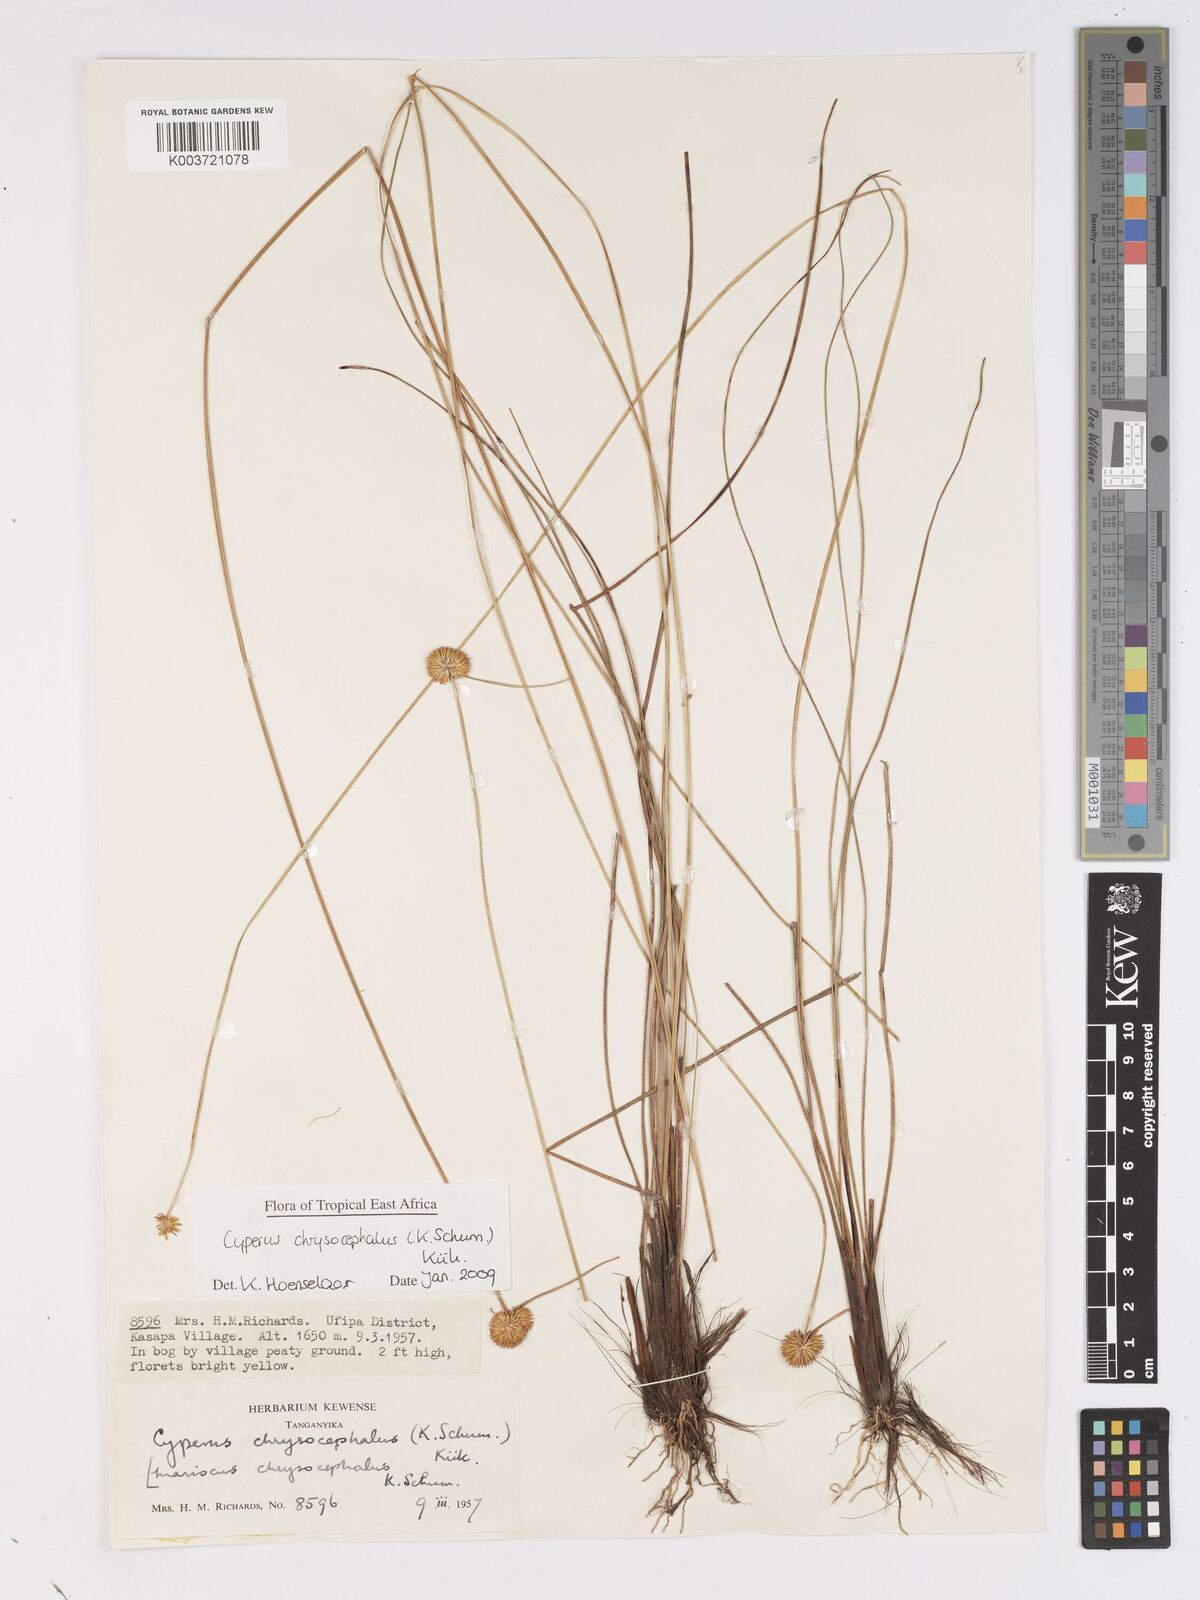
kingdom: Plantae
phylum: Tracheophyta
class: Liliopsida
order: Poales
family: Cyperaceae
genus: Cyperus
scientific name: Cyperus chrysocephalus
